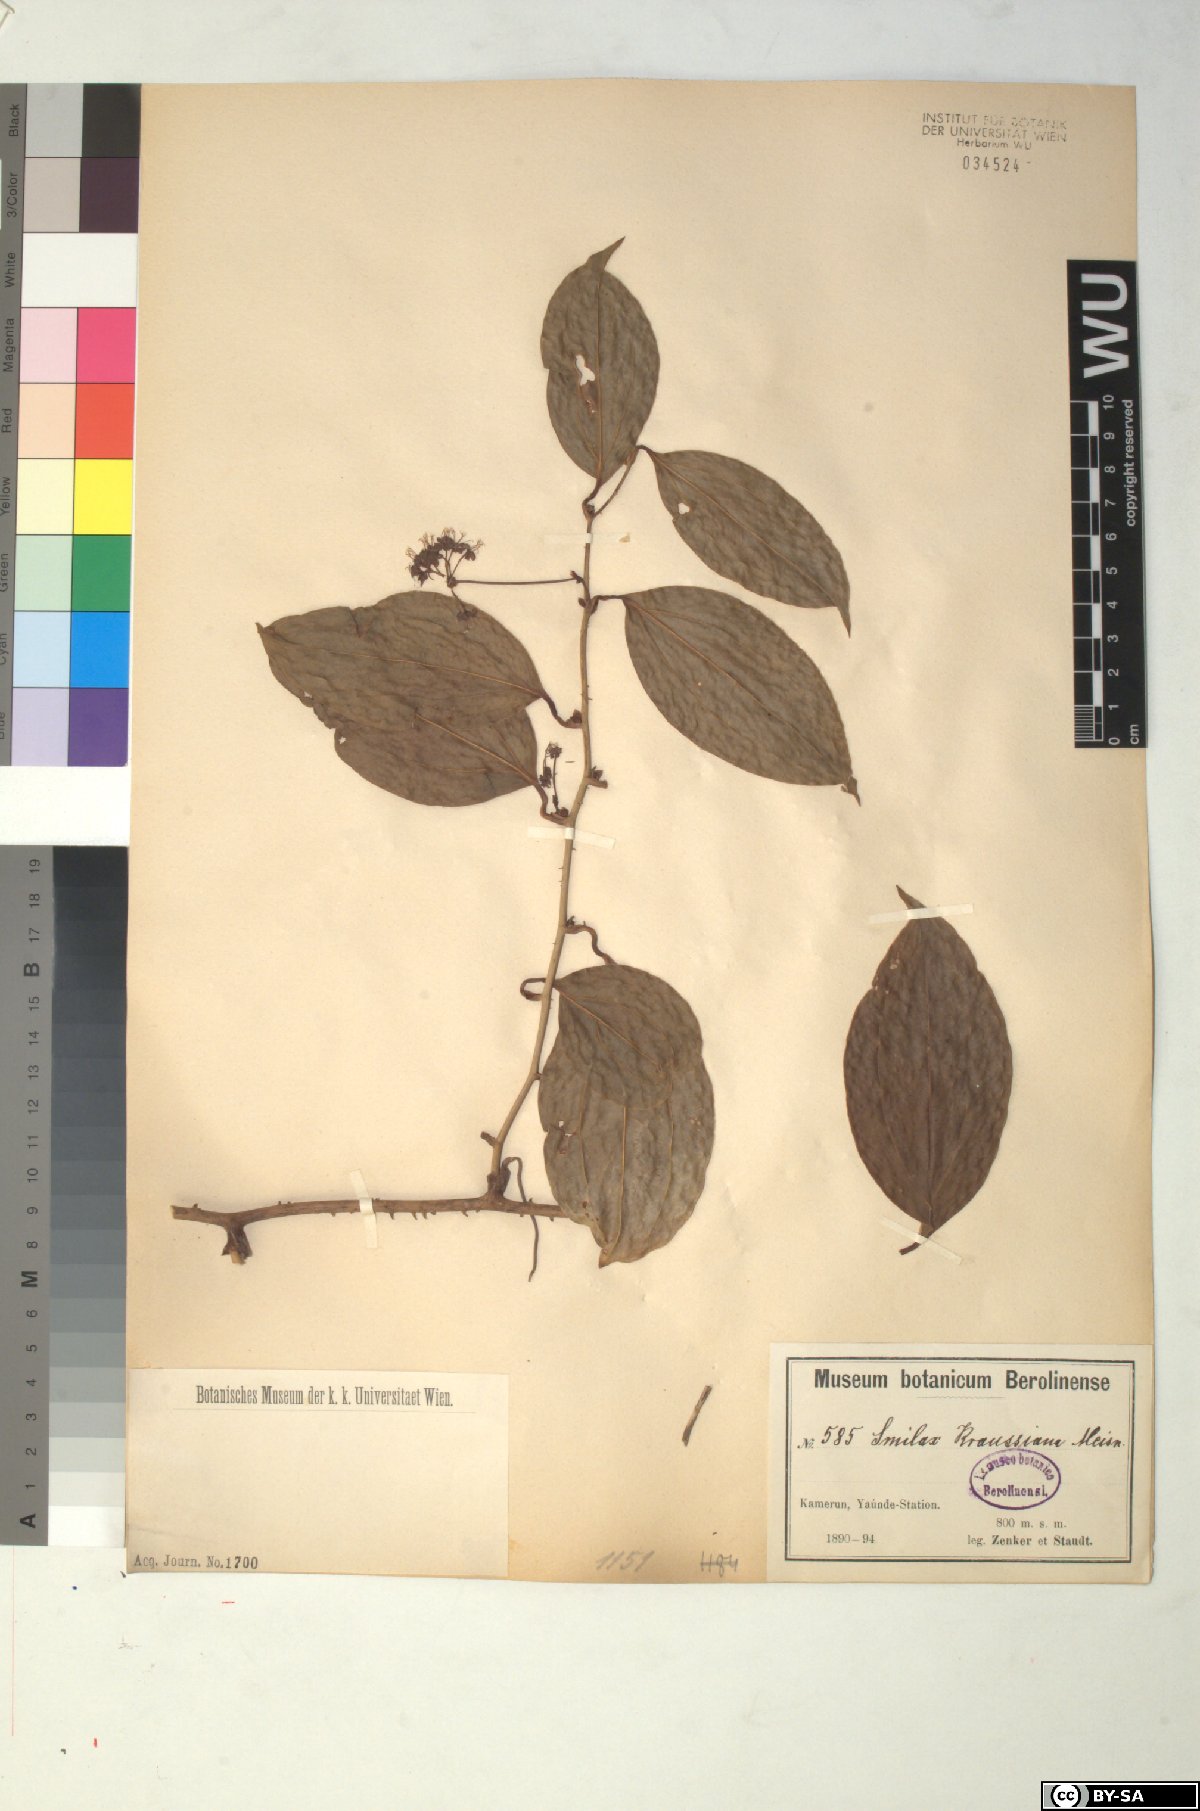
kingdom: Plantae
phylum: Tracheophyta
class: Liliopsida
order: Liliales
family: Smilacaceae
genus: Smilax
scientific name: Smilax anceps
